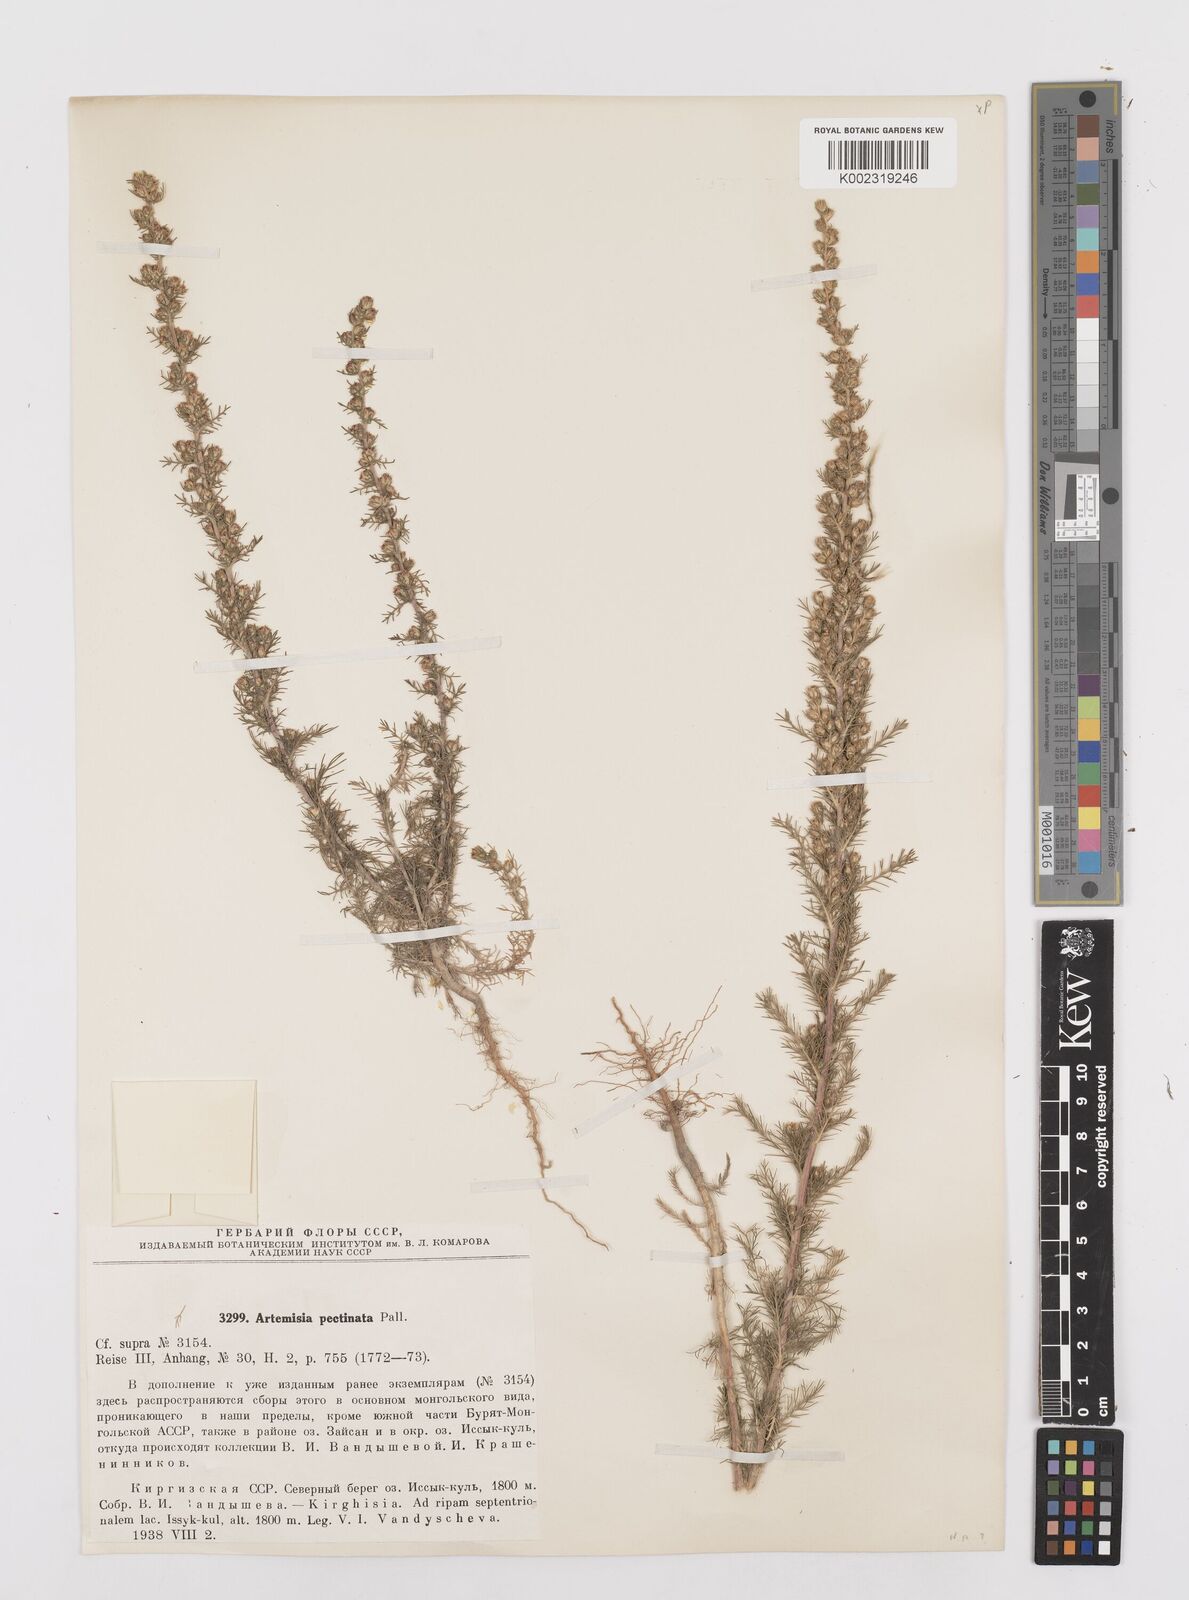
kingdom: Plantae
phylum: Tracheophyta
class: Magnoliopsida
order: Asterales
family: Asteraceae
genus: Neopallasia
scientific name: Neopallasia pectinata
